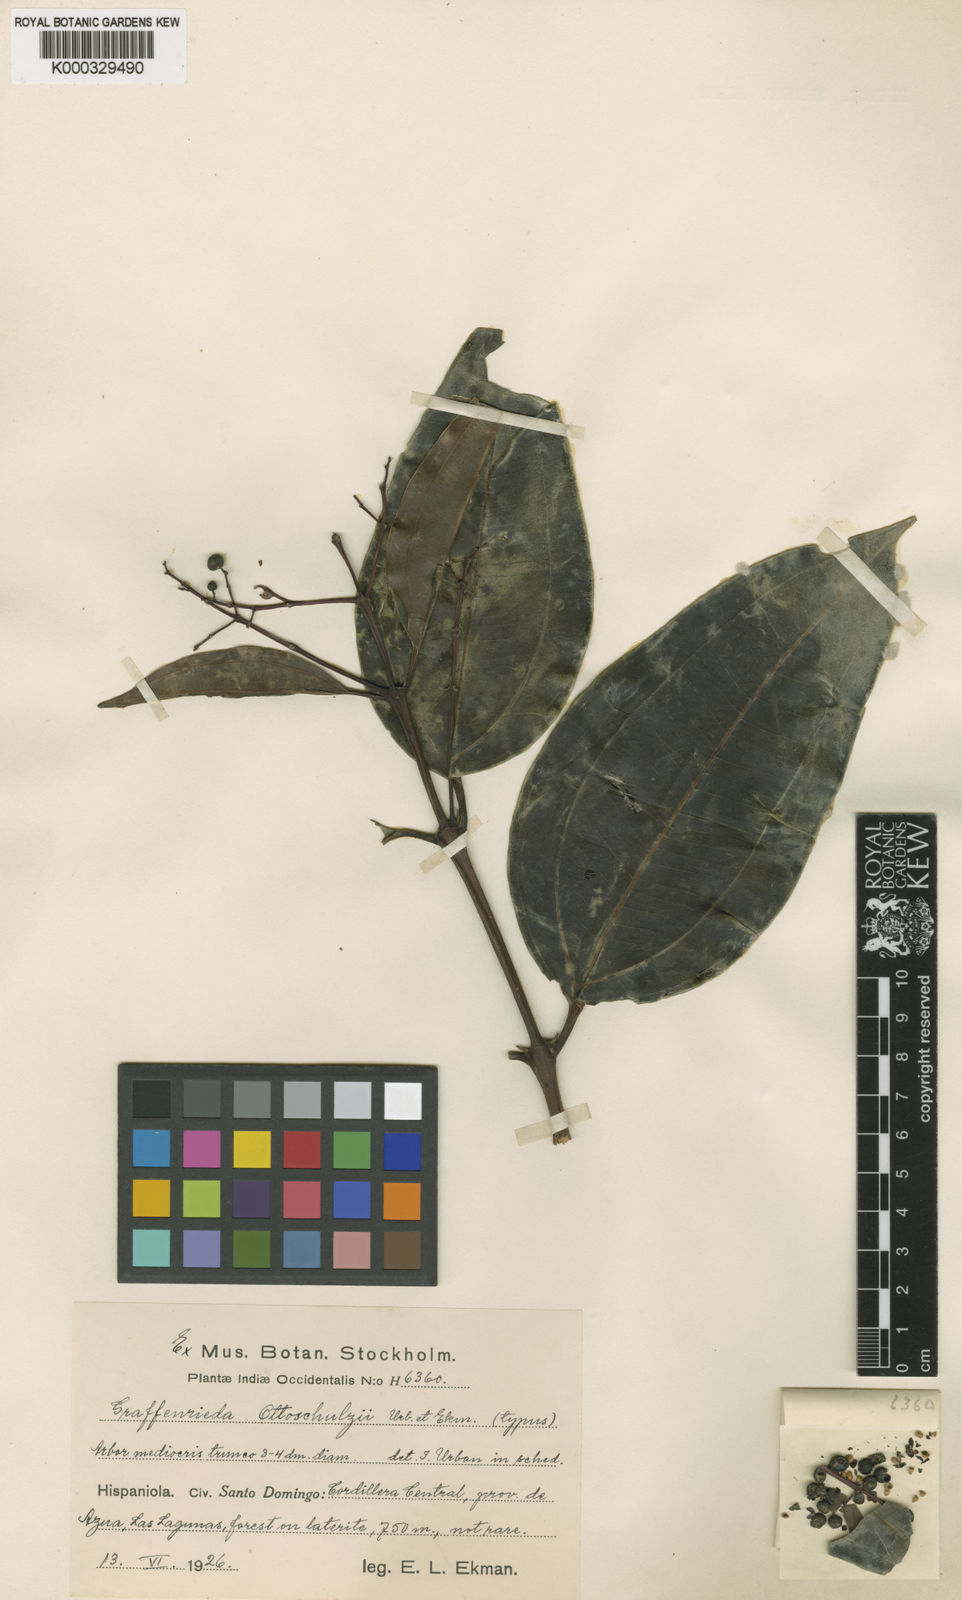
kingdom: Plantae
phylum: Tracheophyta
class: Magnoliopsida
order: Myrtales
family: Melastomataceae
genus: Graffenrieda
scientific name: Graffenrieda ottoschulzii
